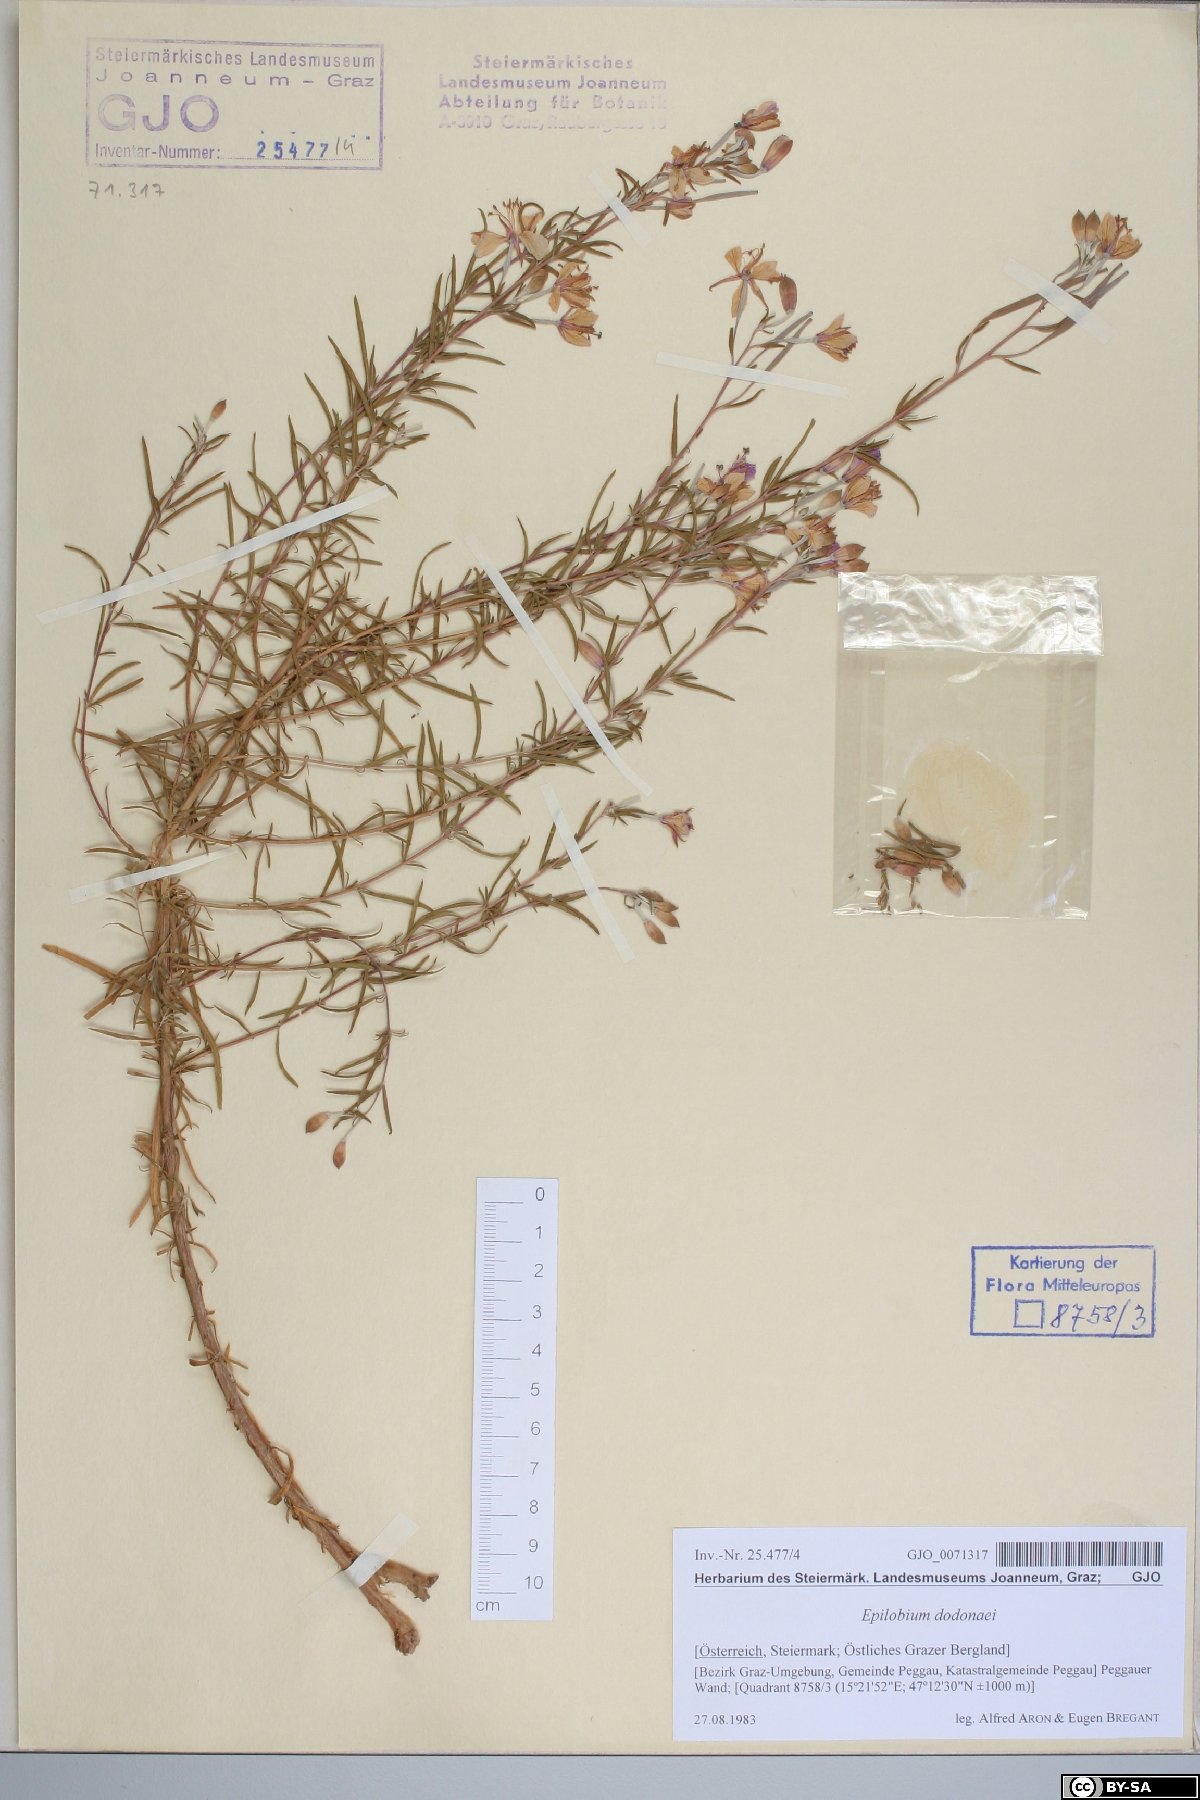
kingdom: Plantae
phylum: Tracheophyta
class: Magnoliopsida
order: Myrtales
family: Onagraceae
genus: Chamaenerion
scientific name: Chamaenerion dodonaei
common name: Rosemary-leaved willowherb
